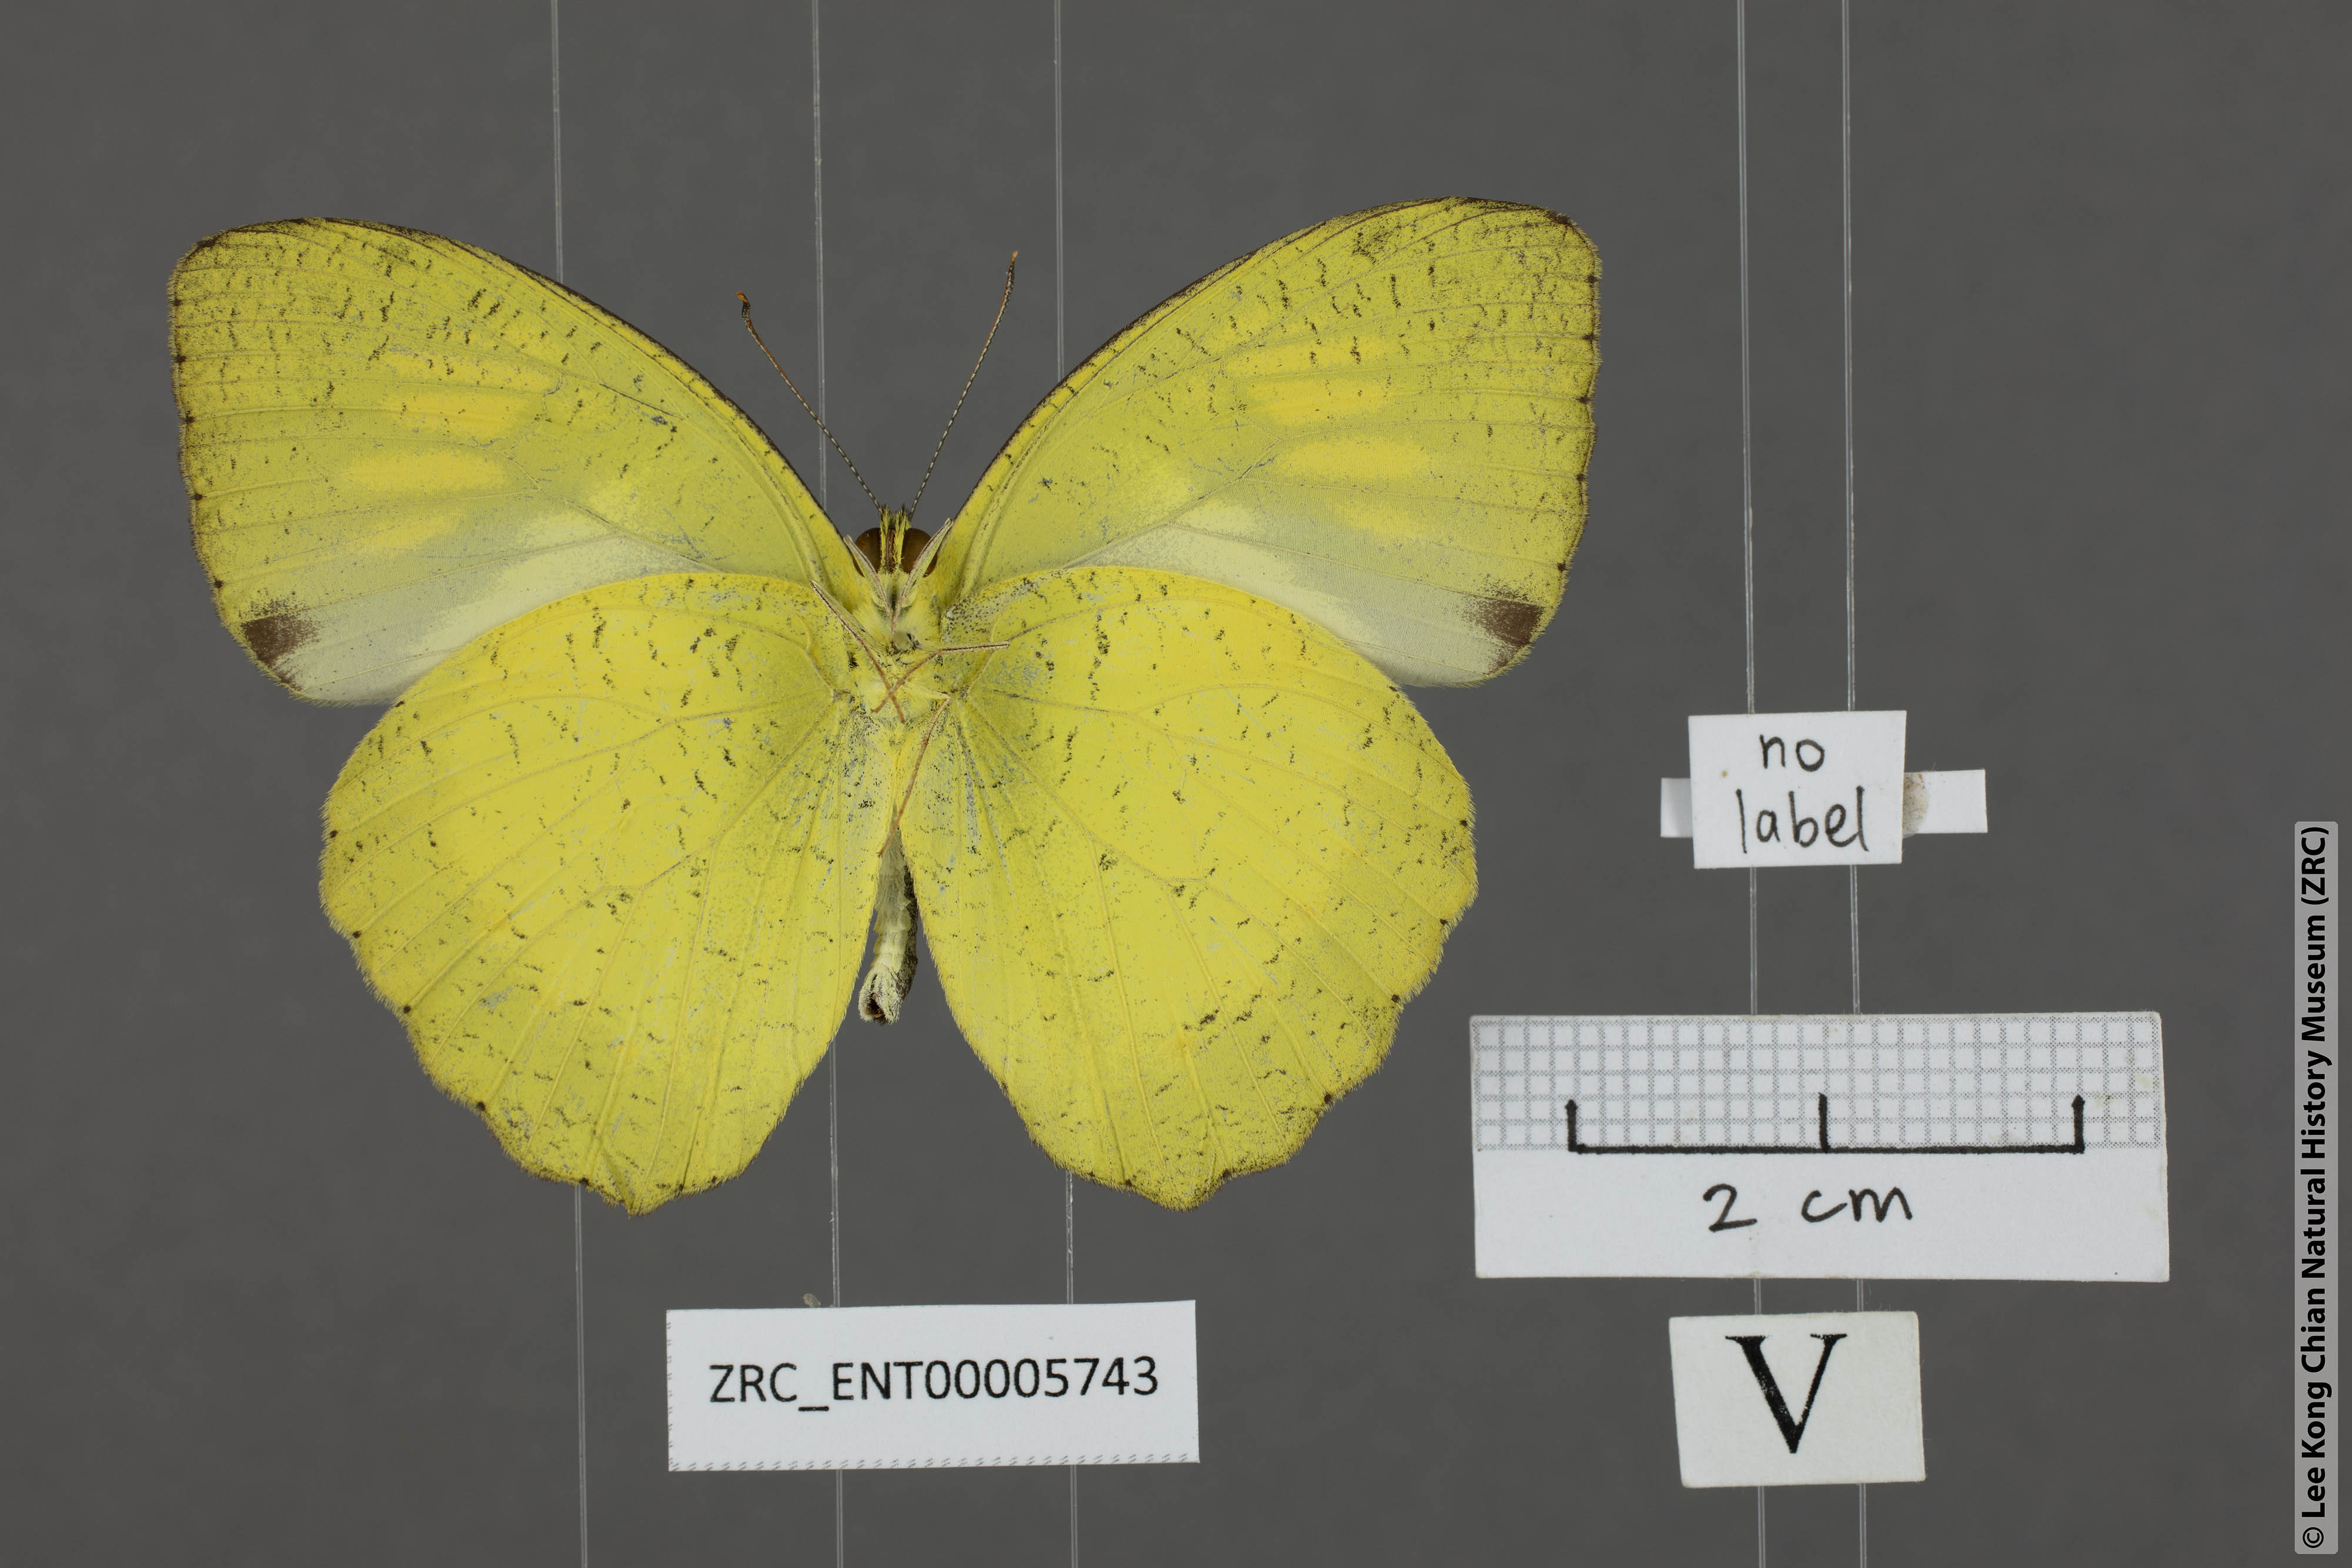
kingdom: Animalia
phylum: Arthropoda
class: Insecta
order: Lepidoptera
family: Pieridae
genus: Ixias
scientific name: Ixias pyrene
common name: Yellow orange tip
